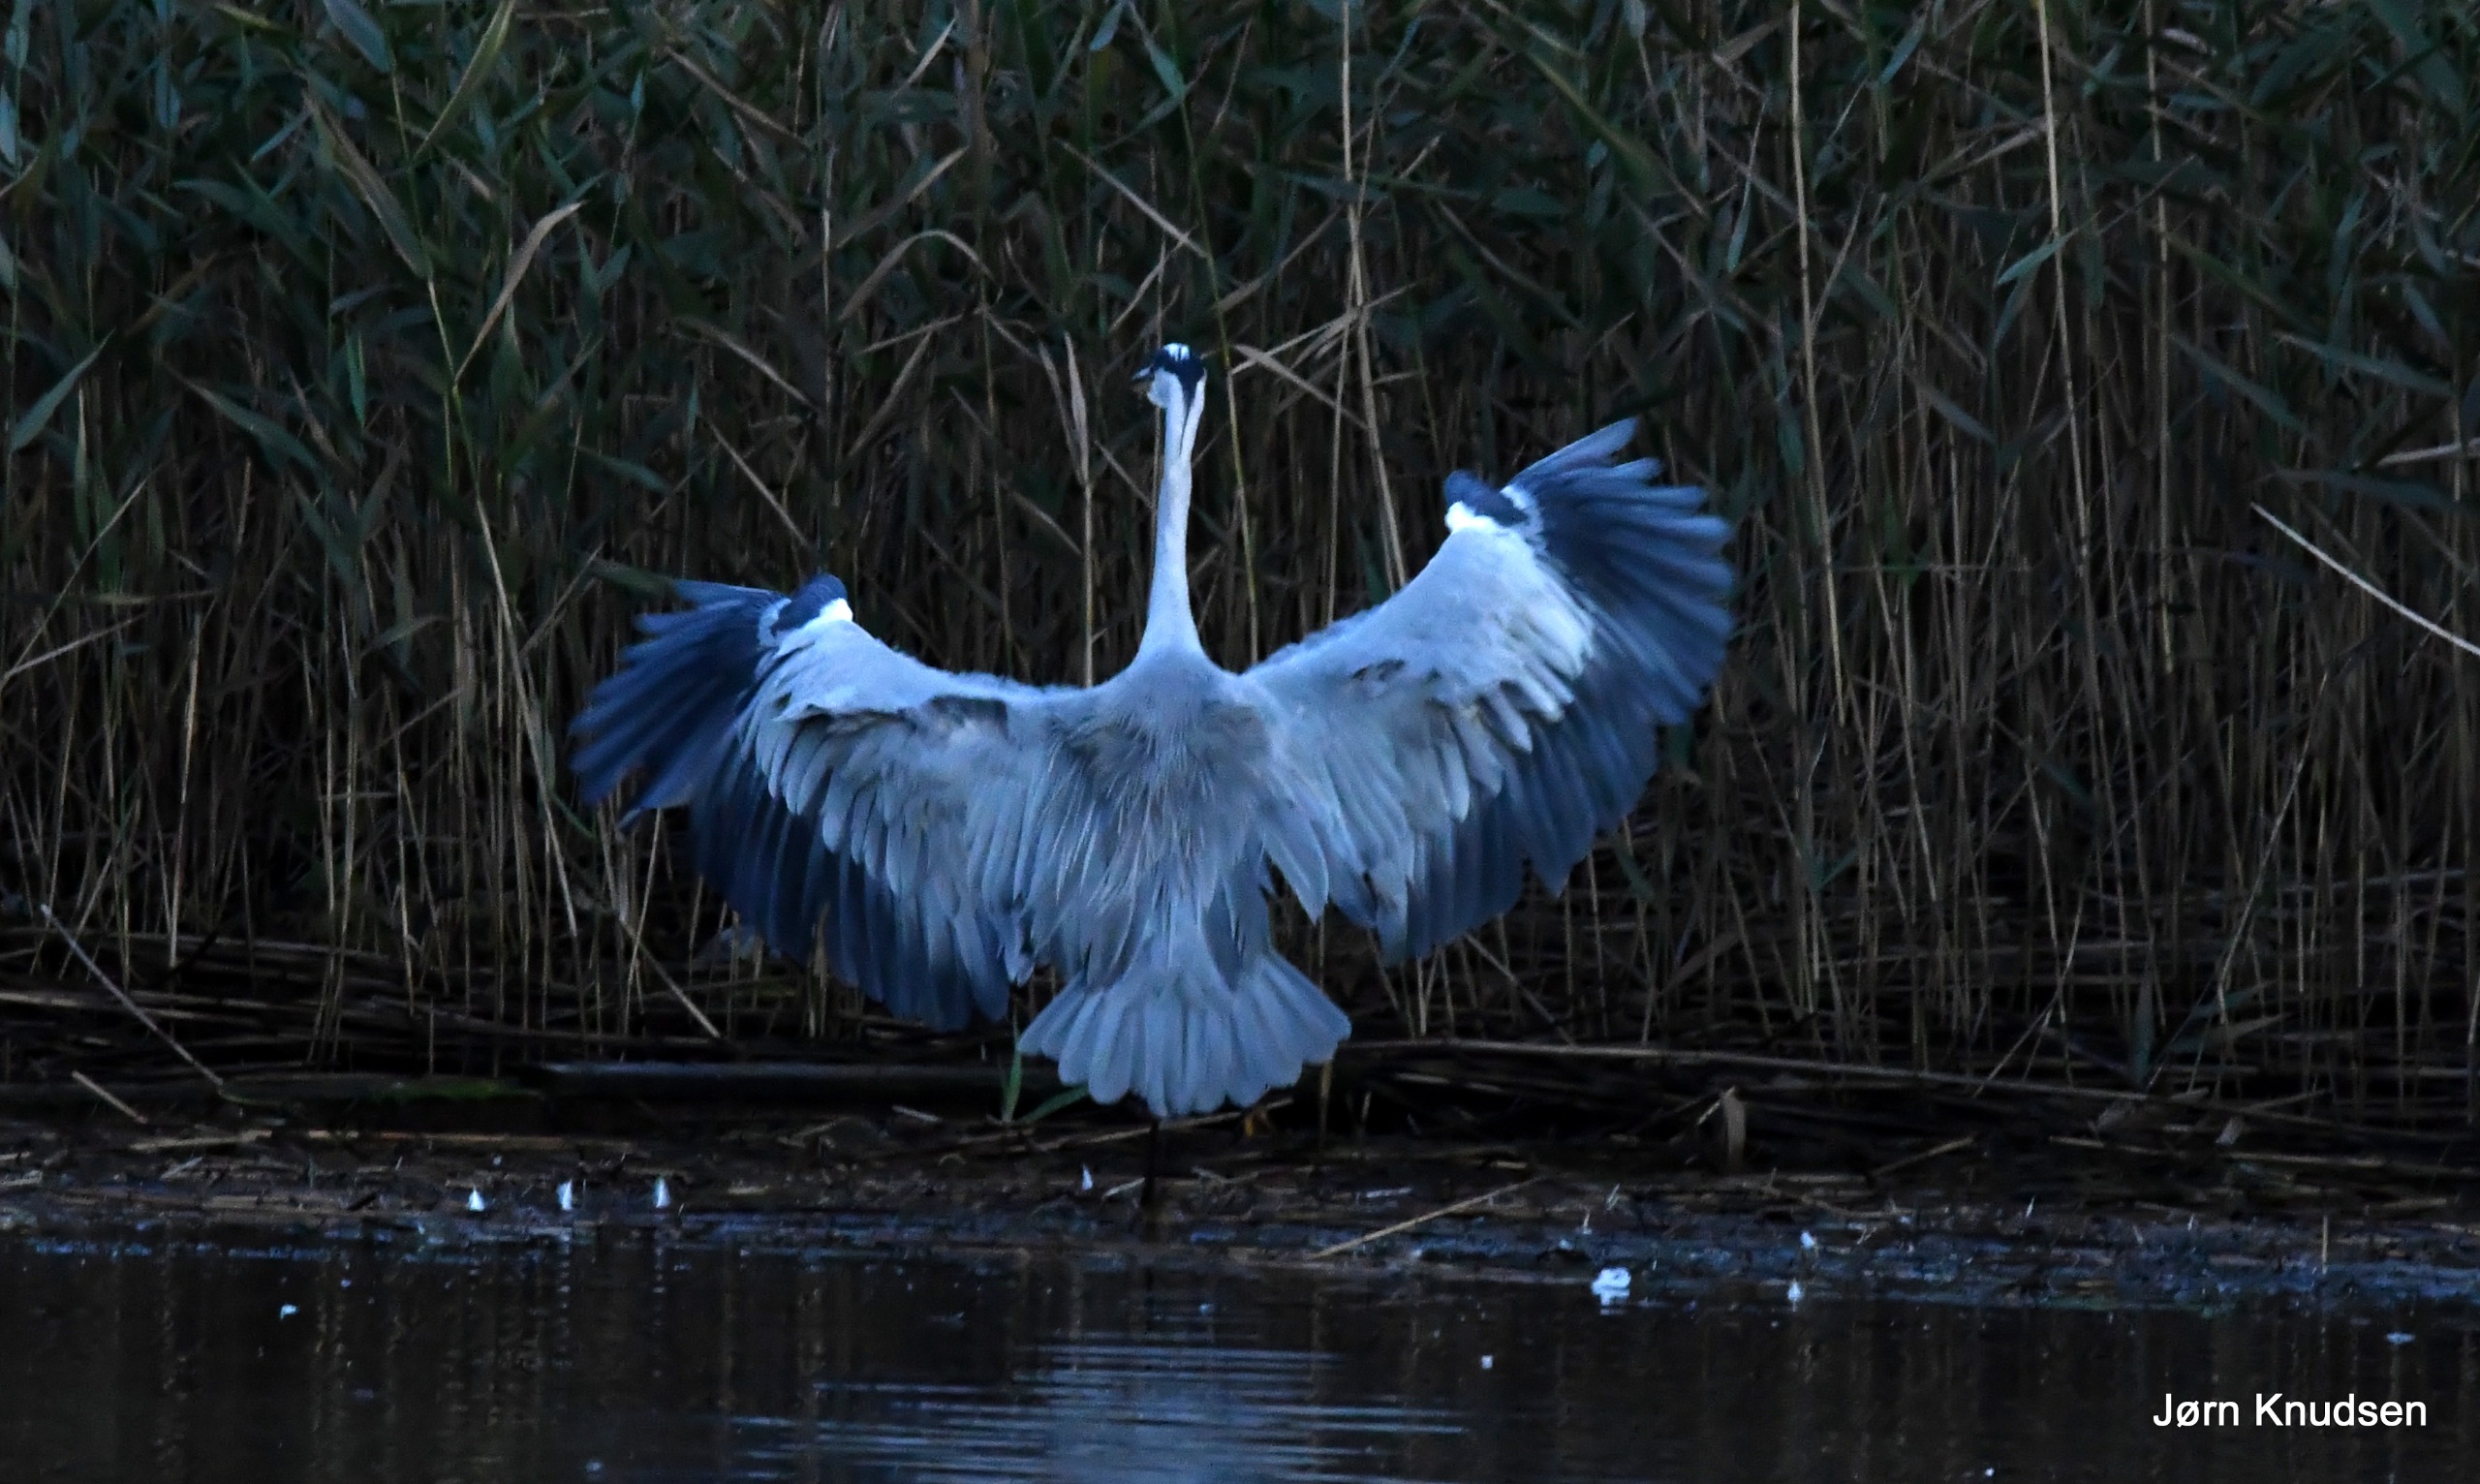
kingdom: Animalia
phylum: Chordata
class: Aves
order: Pelecaniformes
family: Ardeidae
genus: Ardea
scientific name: Ardea cinerea
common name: Fiskehejre
